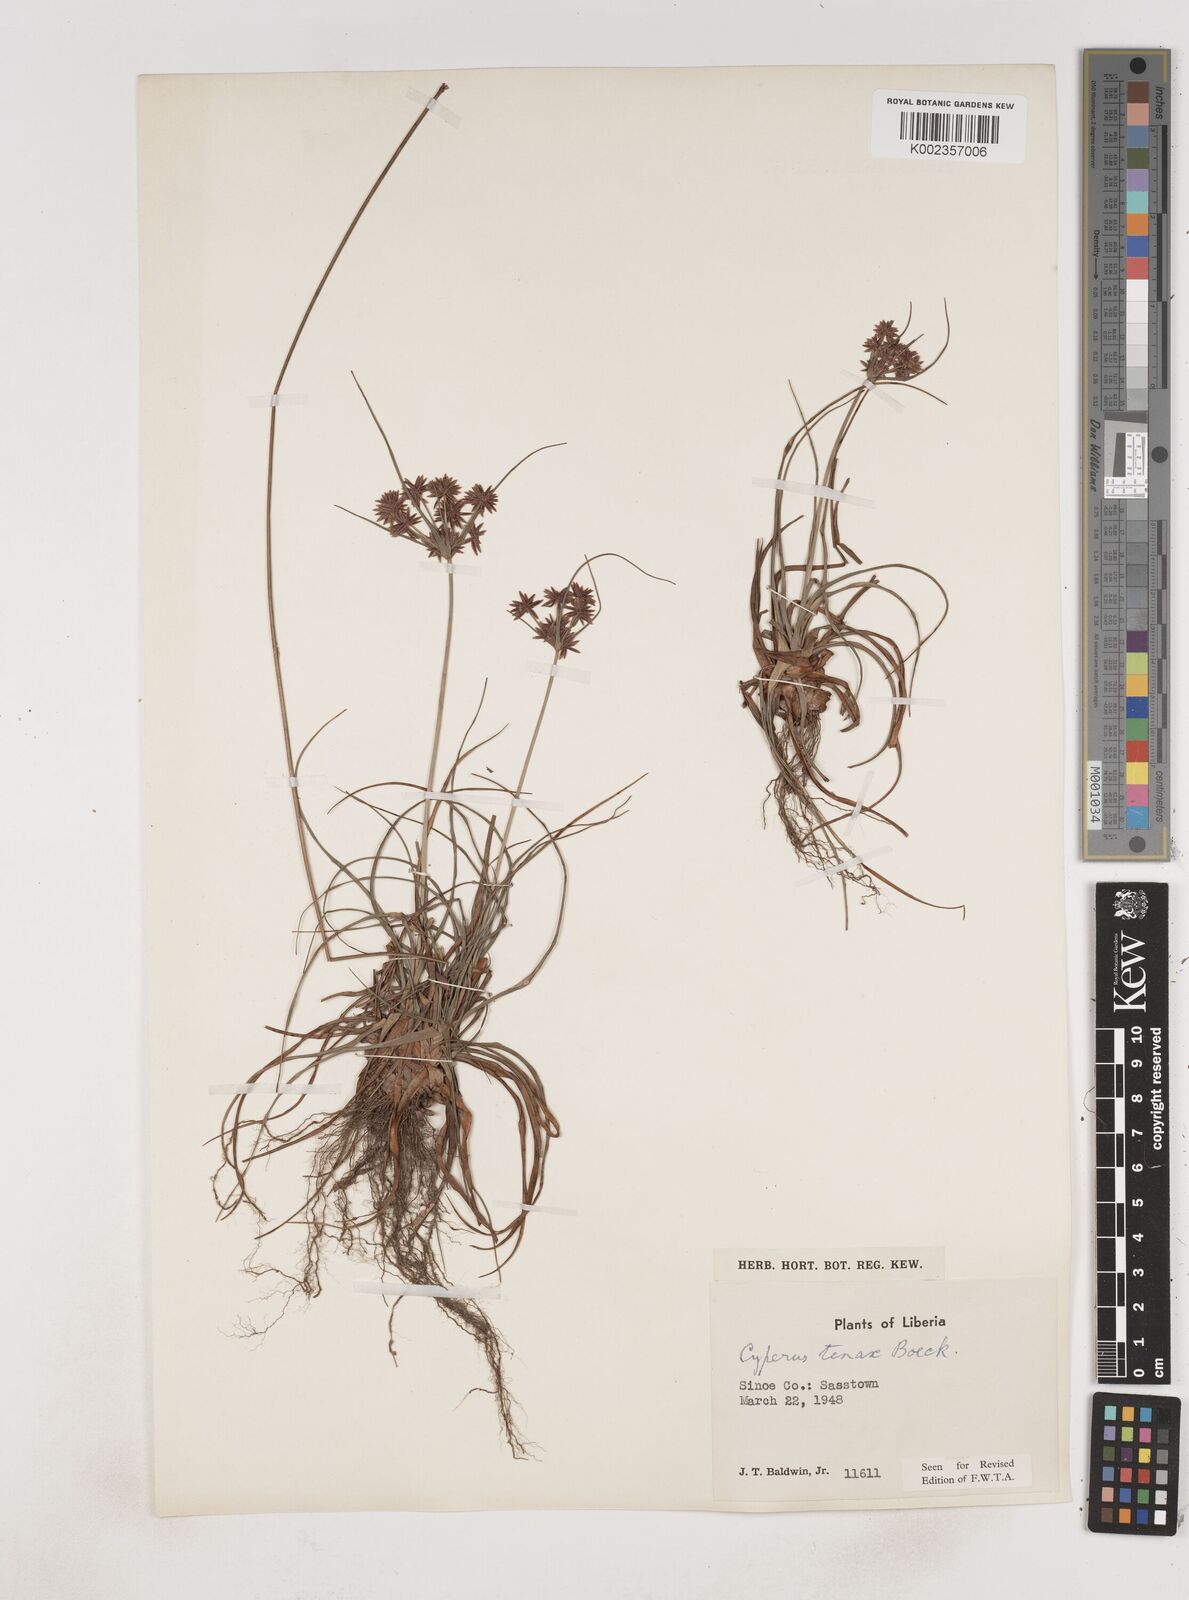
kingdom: Plantae
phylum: Tracheophyta
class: Liliopsida
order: Poales
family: Cyperaceae
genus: Cyperus
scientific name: Cyperus tenax
